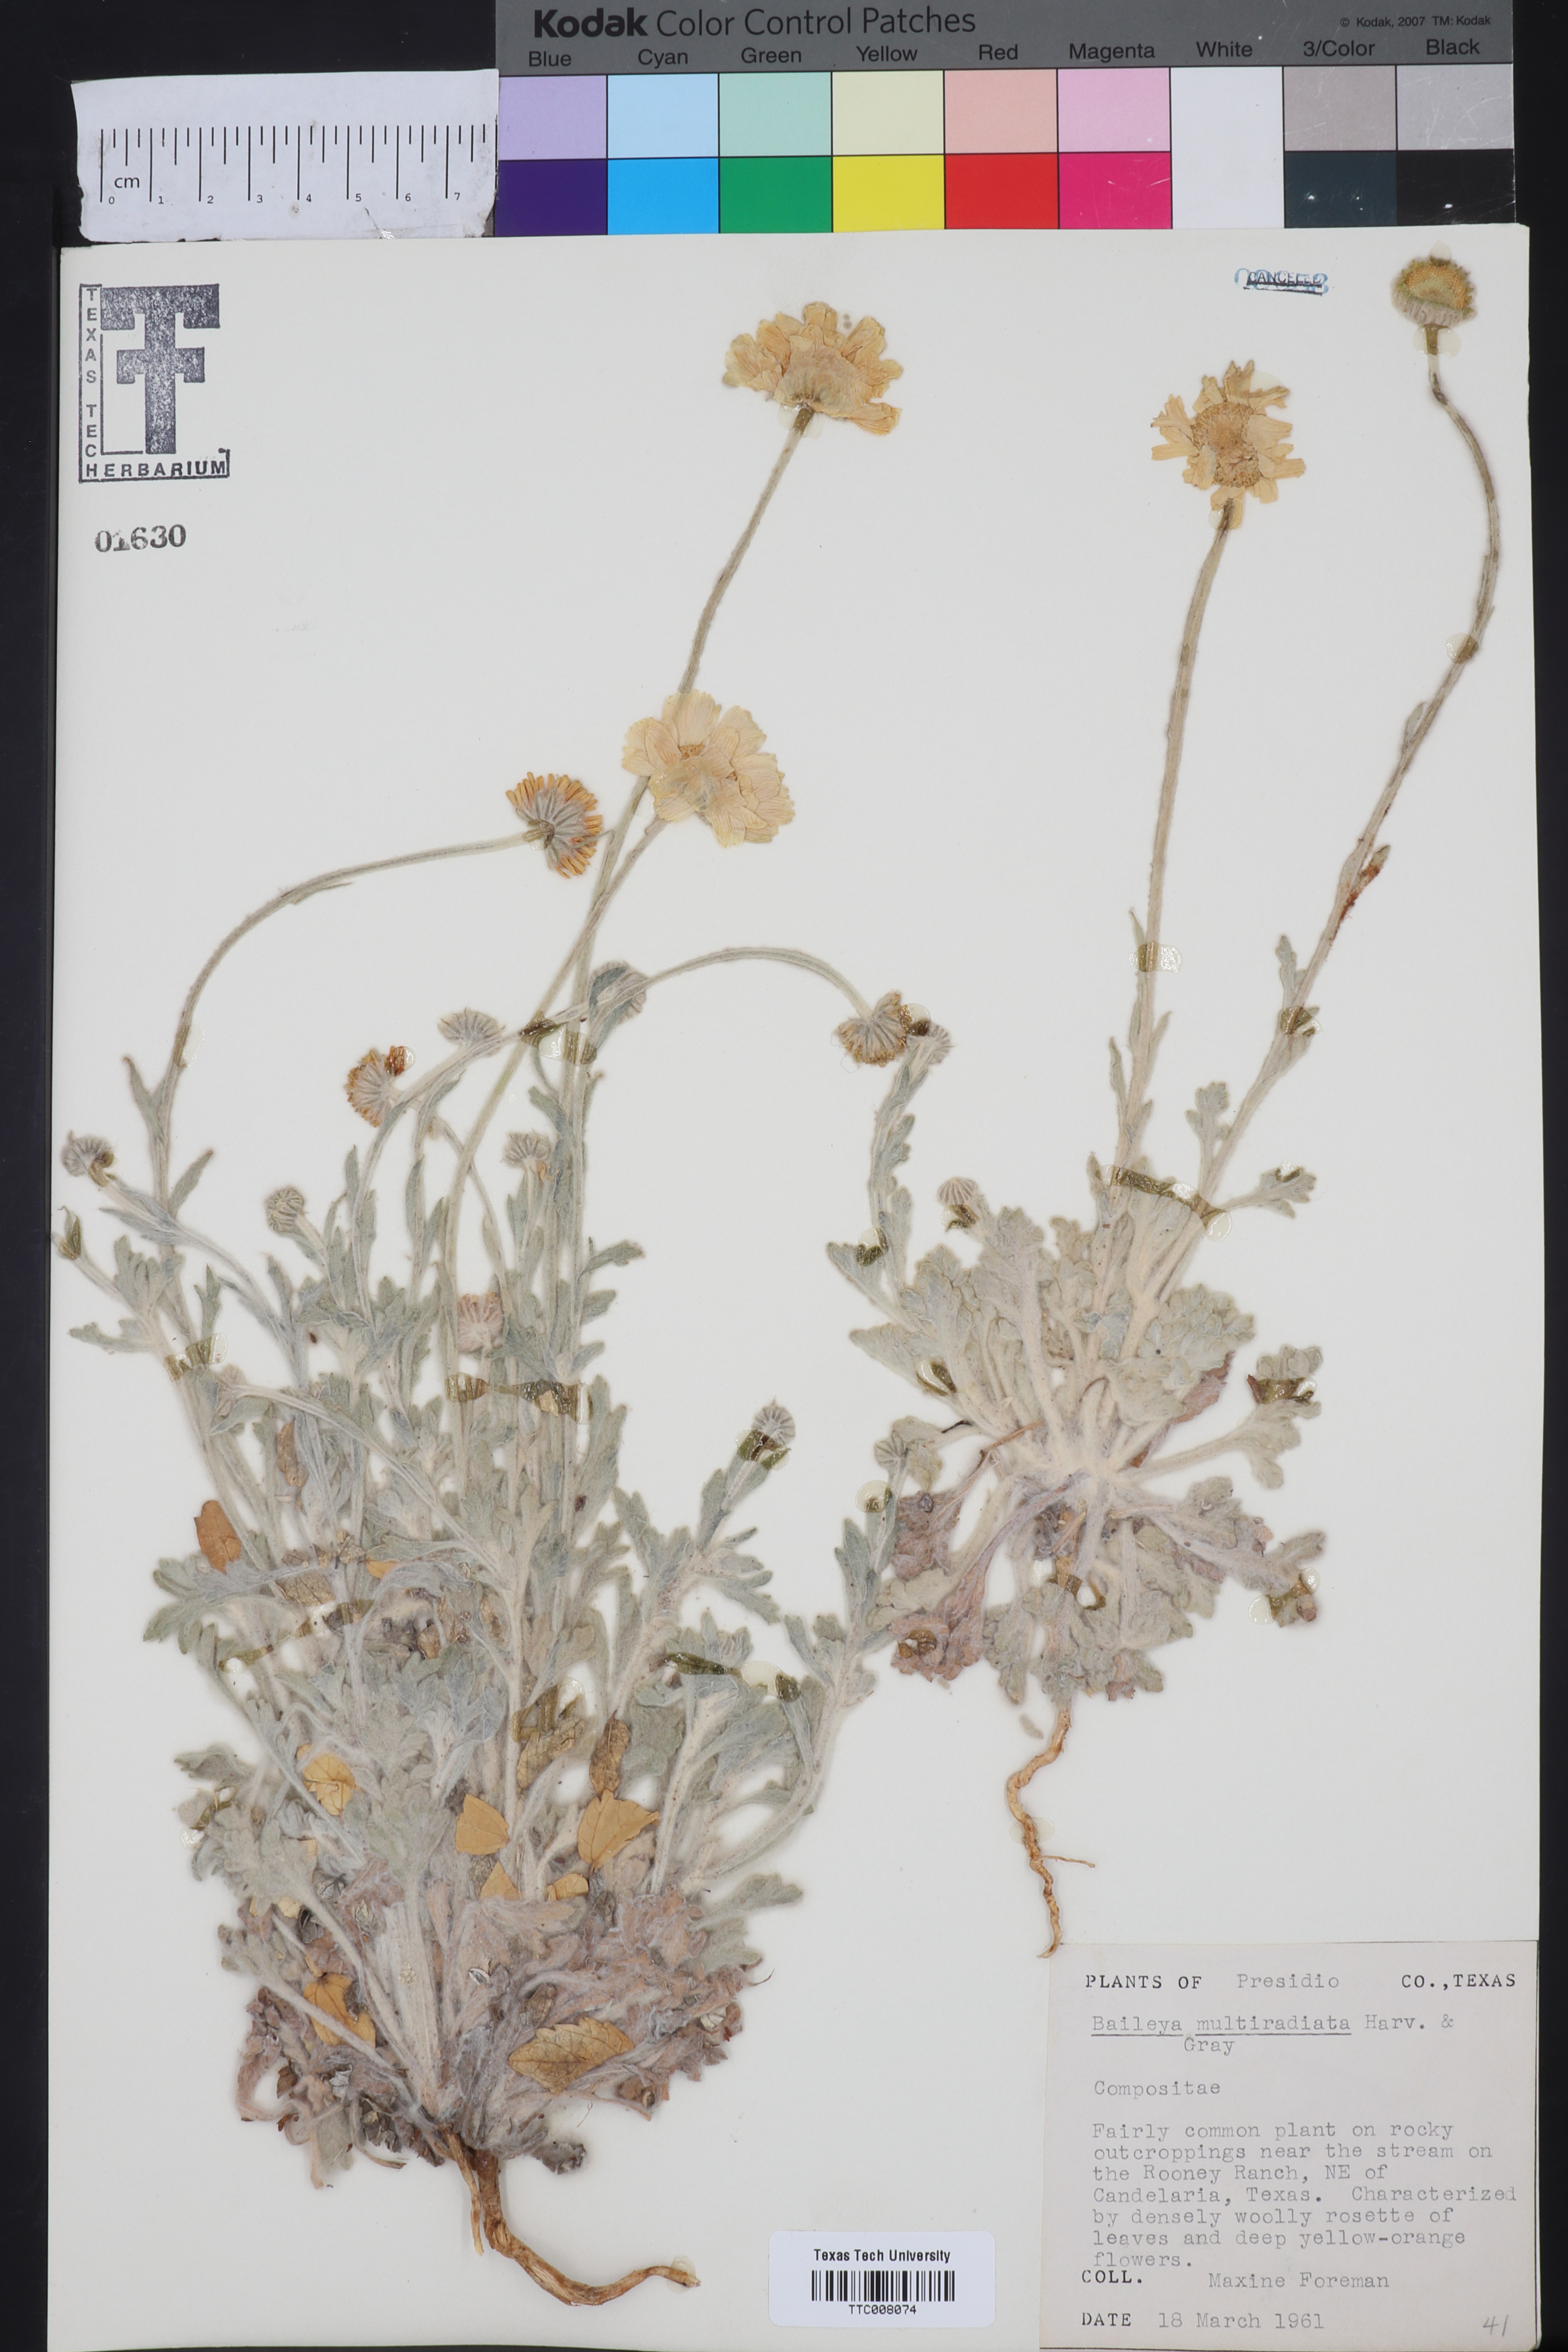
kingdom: Plantae
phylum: Tracheophyta
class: Magnoliopsida
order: Asterales
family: Asteraceae
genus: Baileya
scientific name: Baileya multiradiata
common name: Desert-marigold
